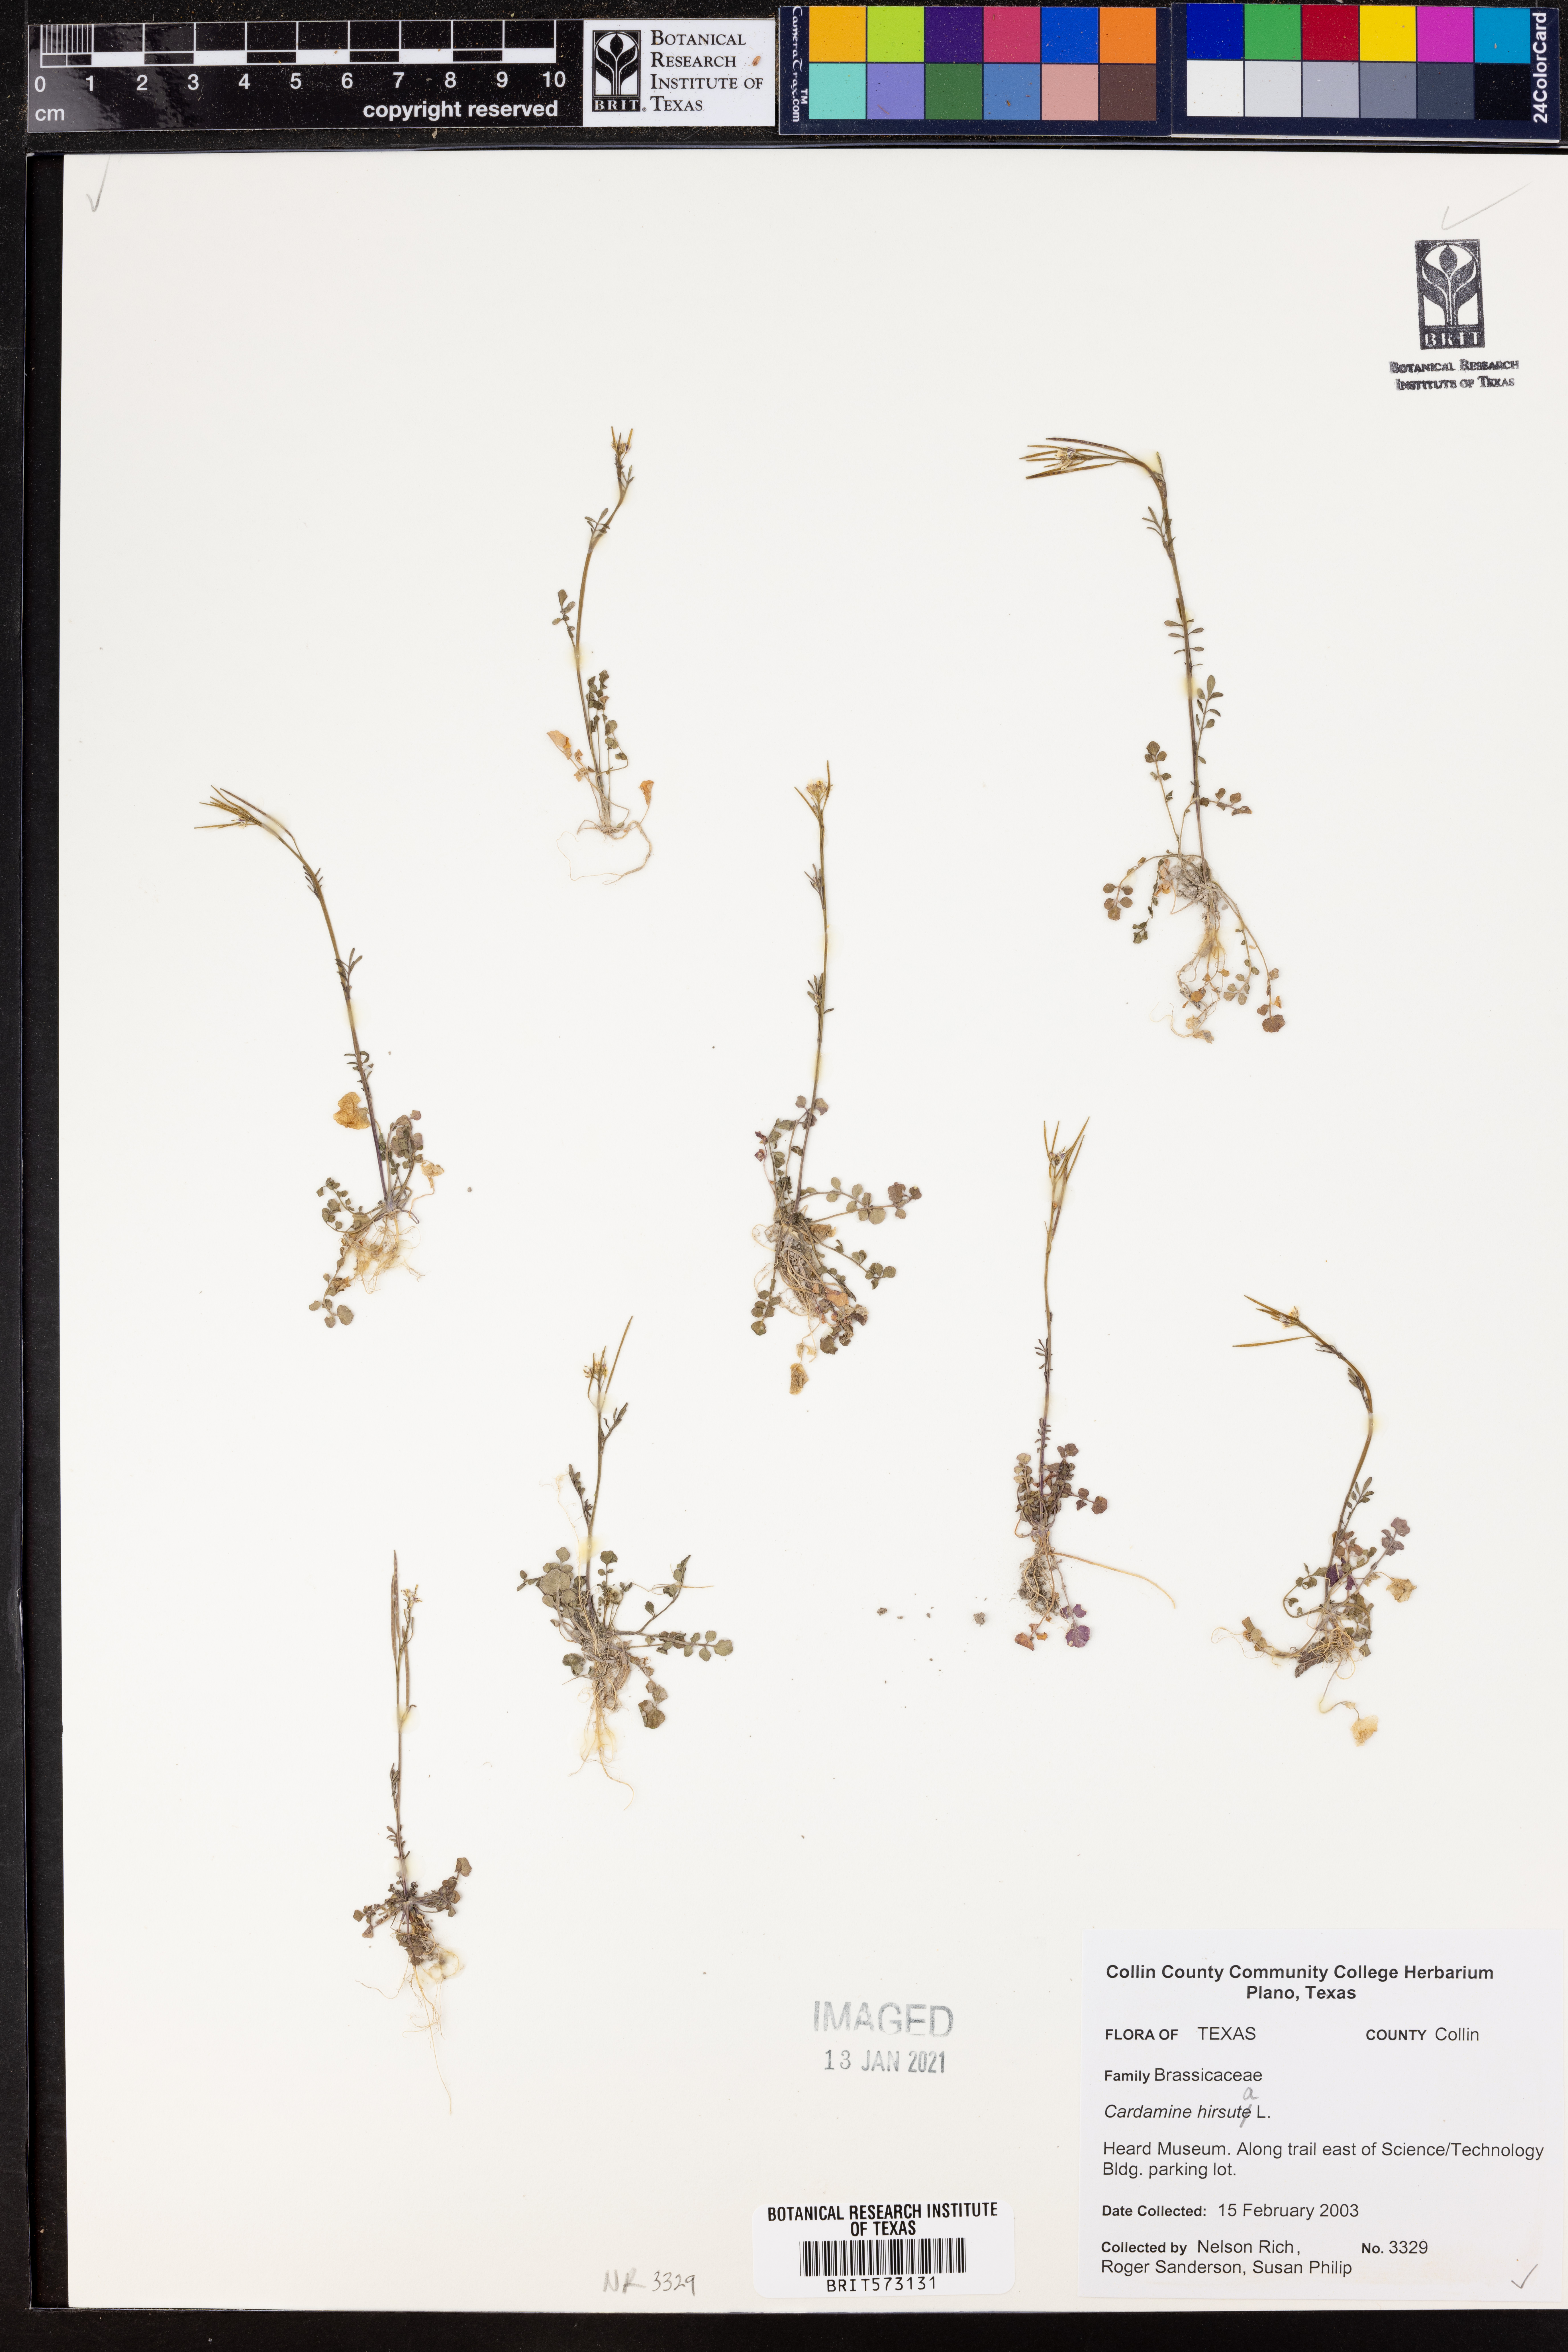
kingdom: Plantae
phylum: Tracheophyta
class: Magnoliopsida
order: Brassicales
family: Brassicaceae
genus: Cardamine
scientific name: Cardamine hirsuta
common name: Hairy bittercress
